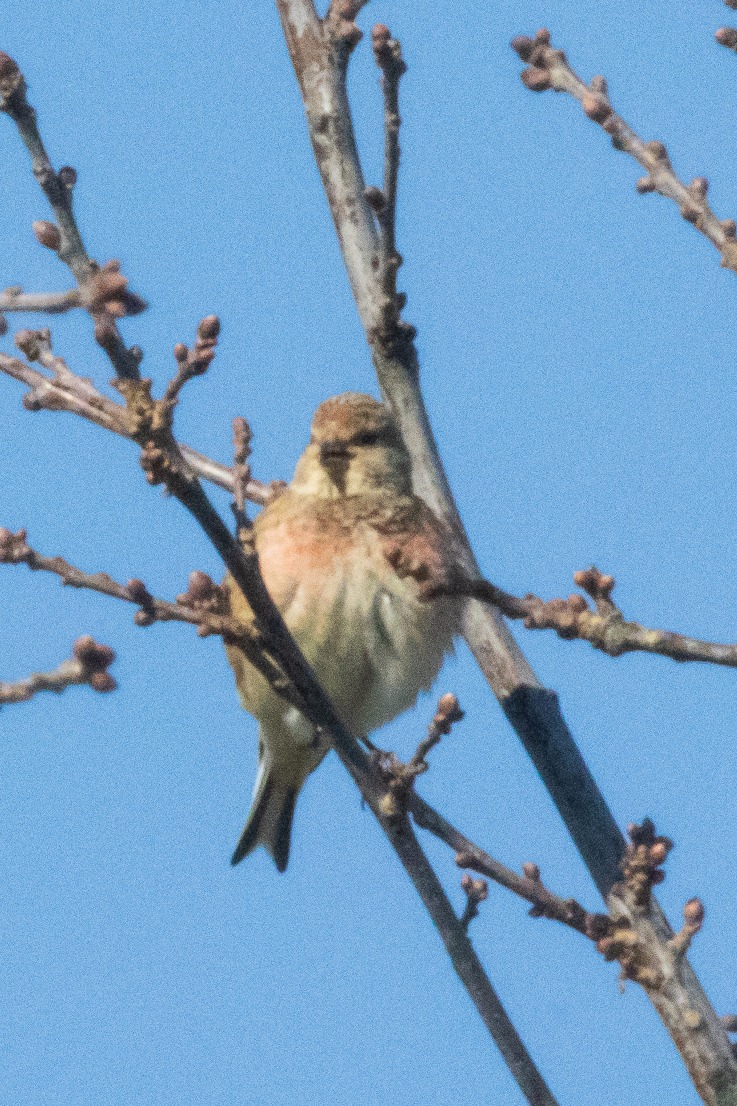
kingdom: Animalia
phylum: Chordata
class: Aves
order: Passeriformes
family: Fringillidae
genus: Linaria
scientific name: Linaria cannabina
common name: Tornirisk
